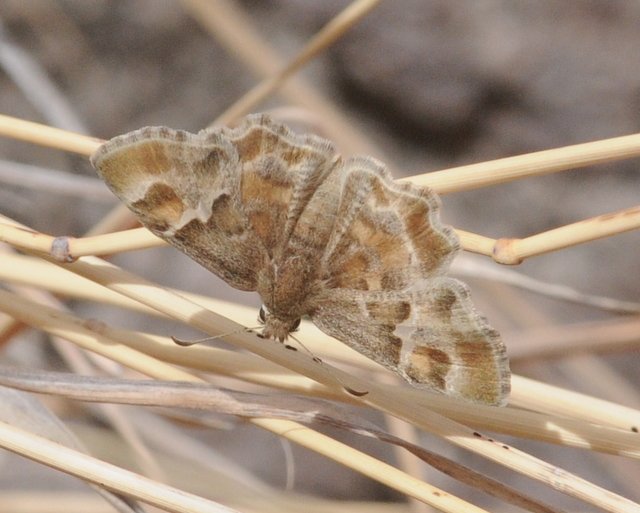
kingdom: Animalia
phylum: Arthropoda
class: Insecta
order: Lepidoptera
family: Hesperiidae
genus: Systasea
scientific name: Systasea zampa
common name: Arizona Powdered-Skipper
